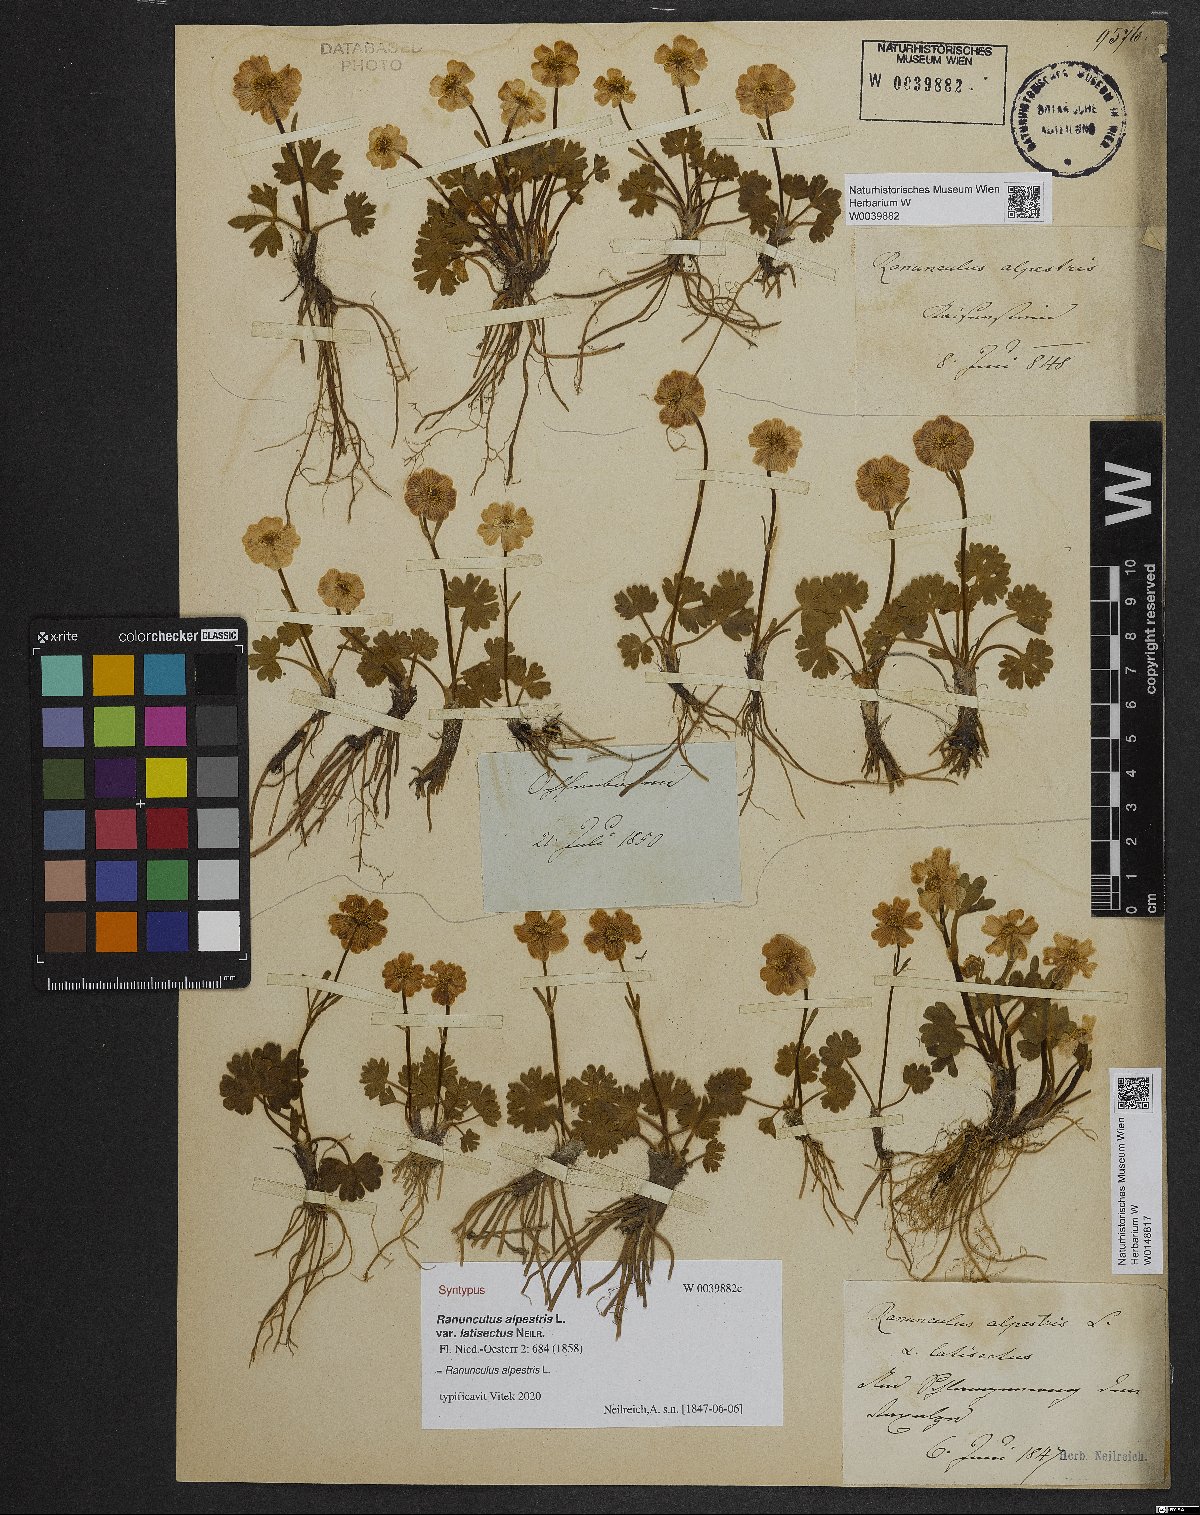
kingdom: Plantae
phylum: Tracheophyta
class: Magnoliopsida
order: Ranunculales
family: Ranunculaceae
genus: Ranunculus
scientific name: Ranunculus alpestris
